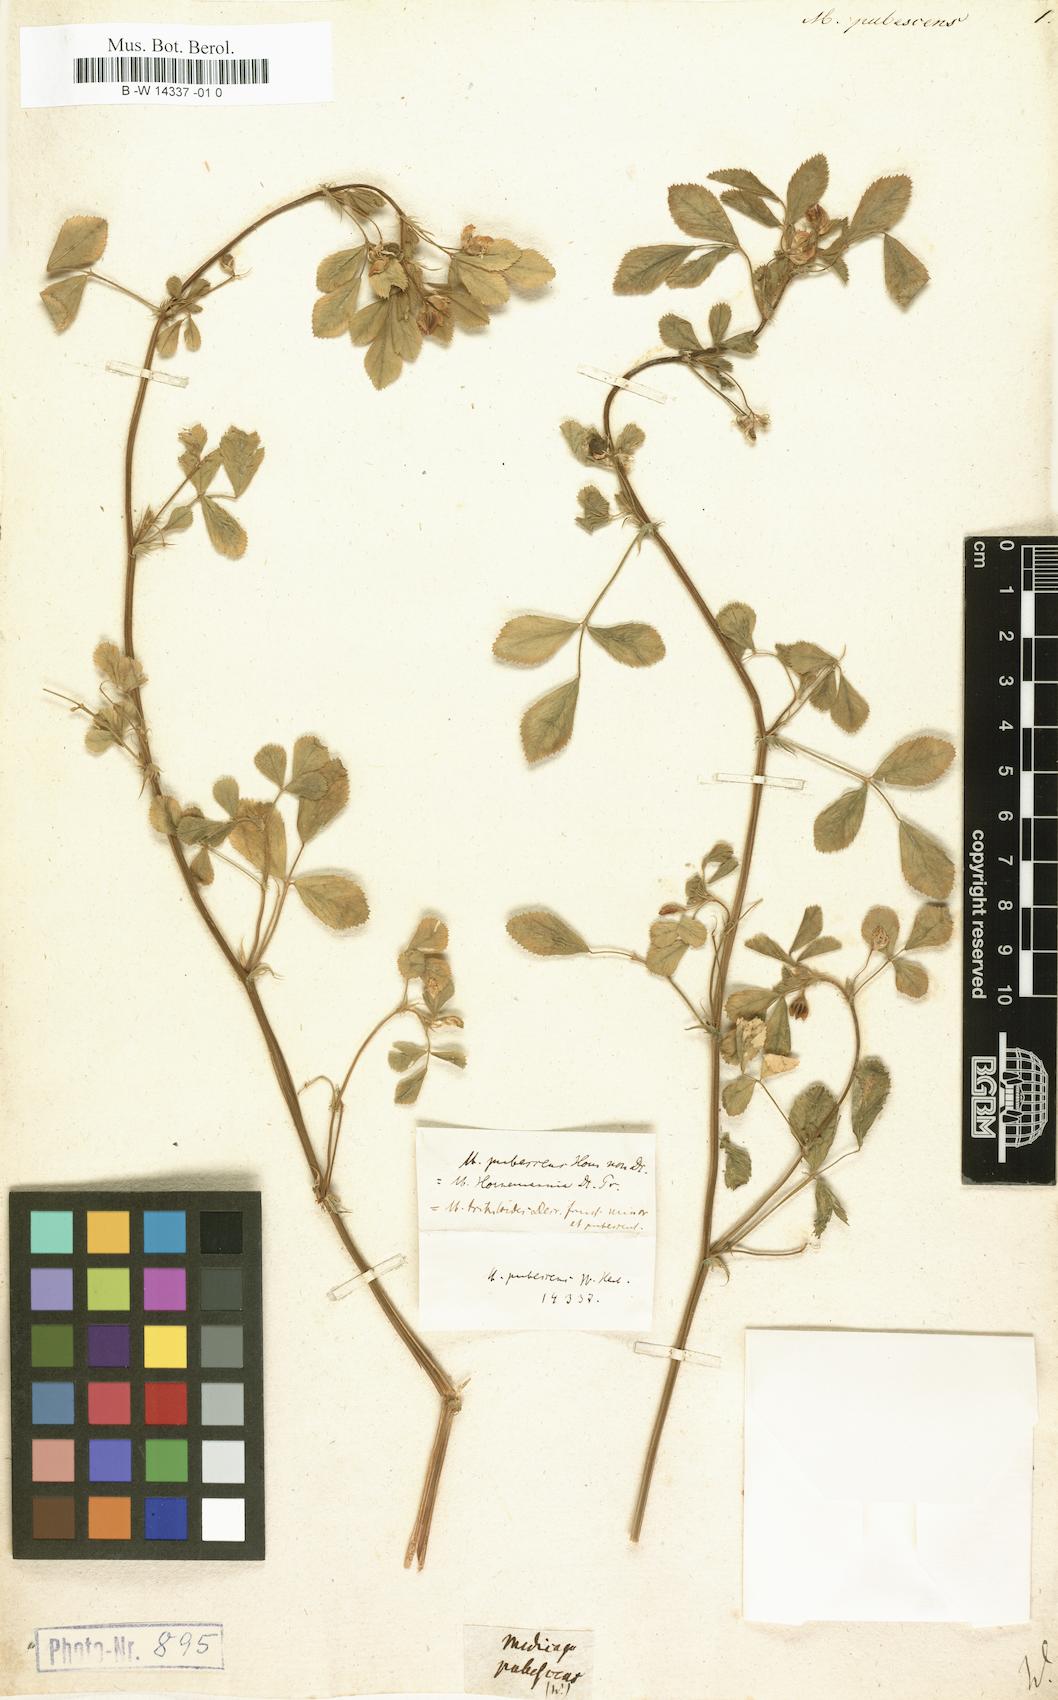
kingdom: Plantae
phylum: Tracheophyta
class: Magnoliopsida
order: Fabales
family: Fabaceae
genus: Medicago
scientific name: Medicago truncatula
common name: Strong-spined medick
